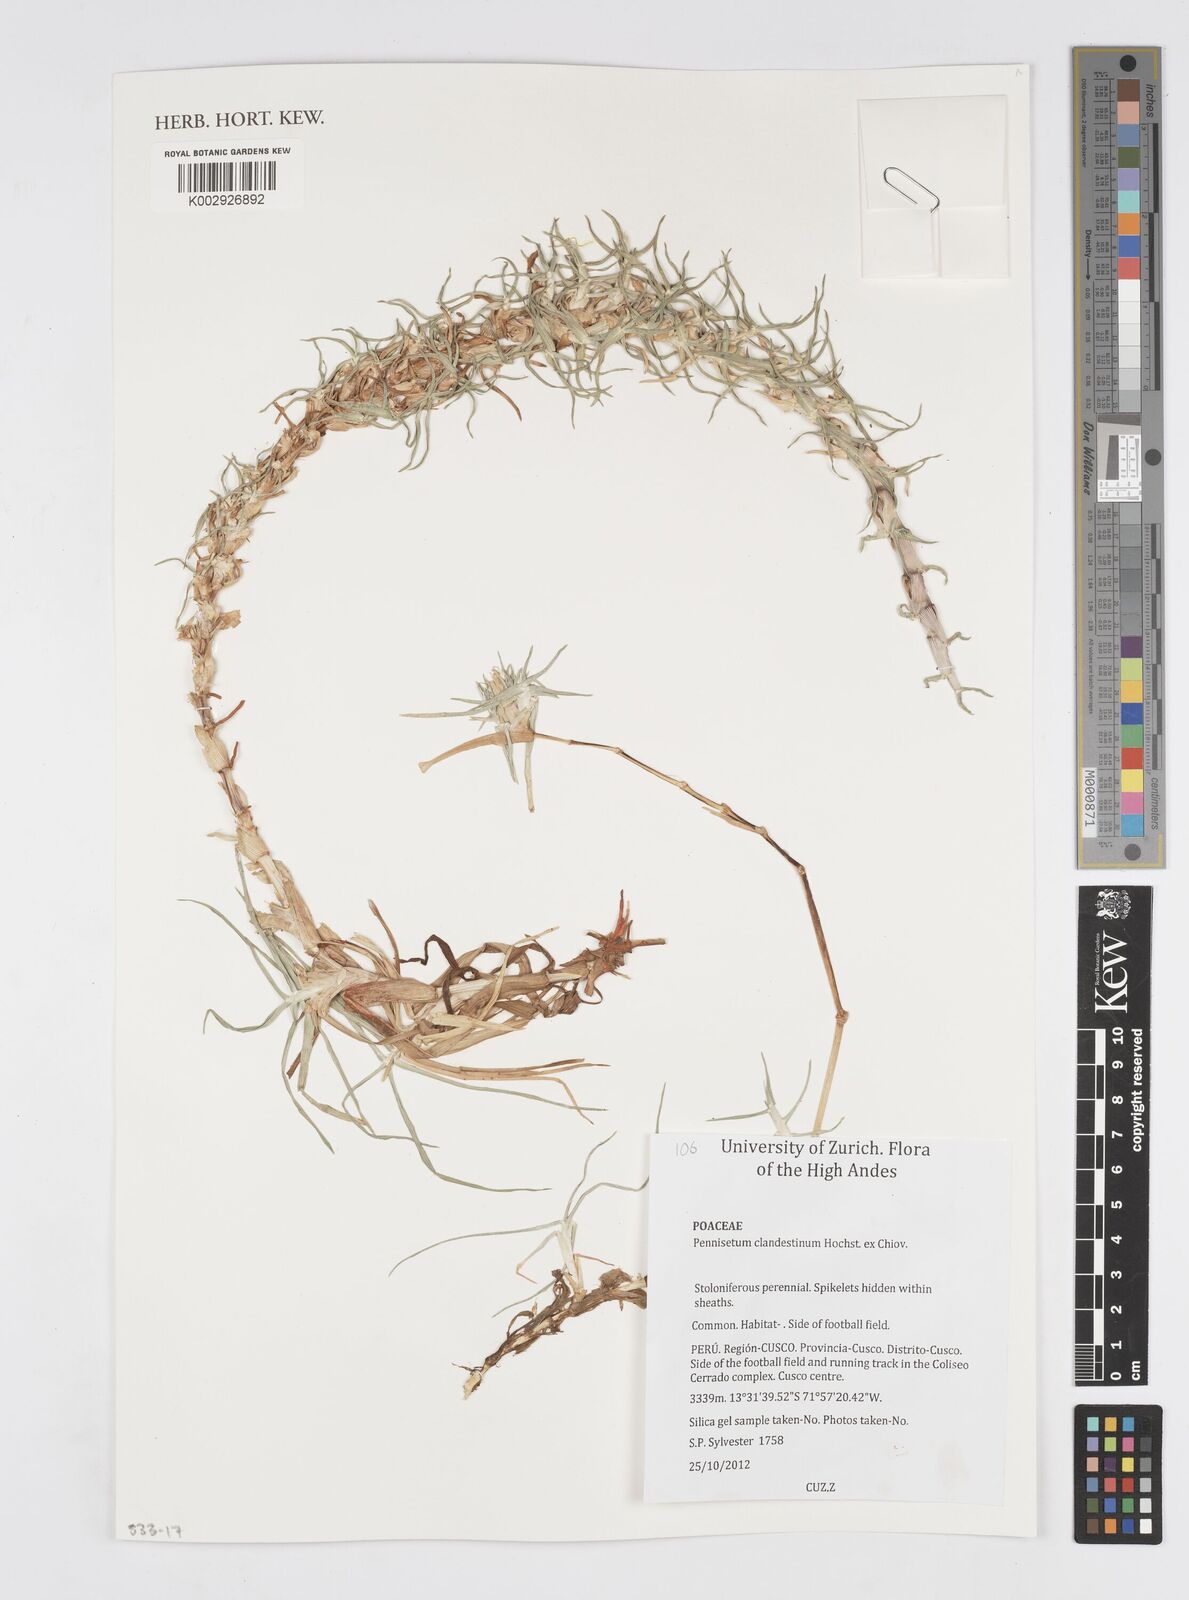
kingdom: Plantae
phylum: Tracheophyta
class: Liliopsida
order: Poales
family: Poaceae
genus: Cenchrus
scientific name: Cenchrus clandestinus
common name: Kikuyugrass
